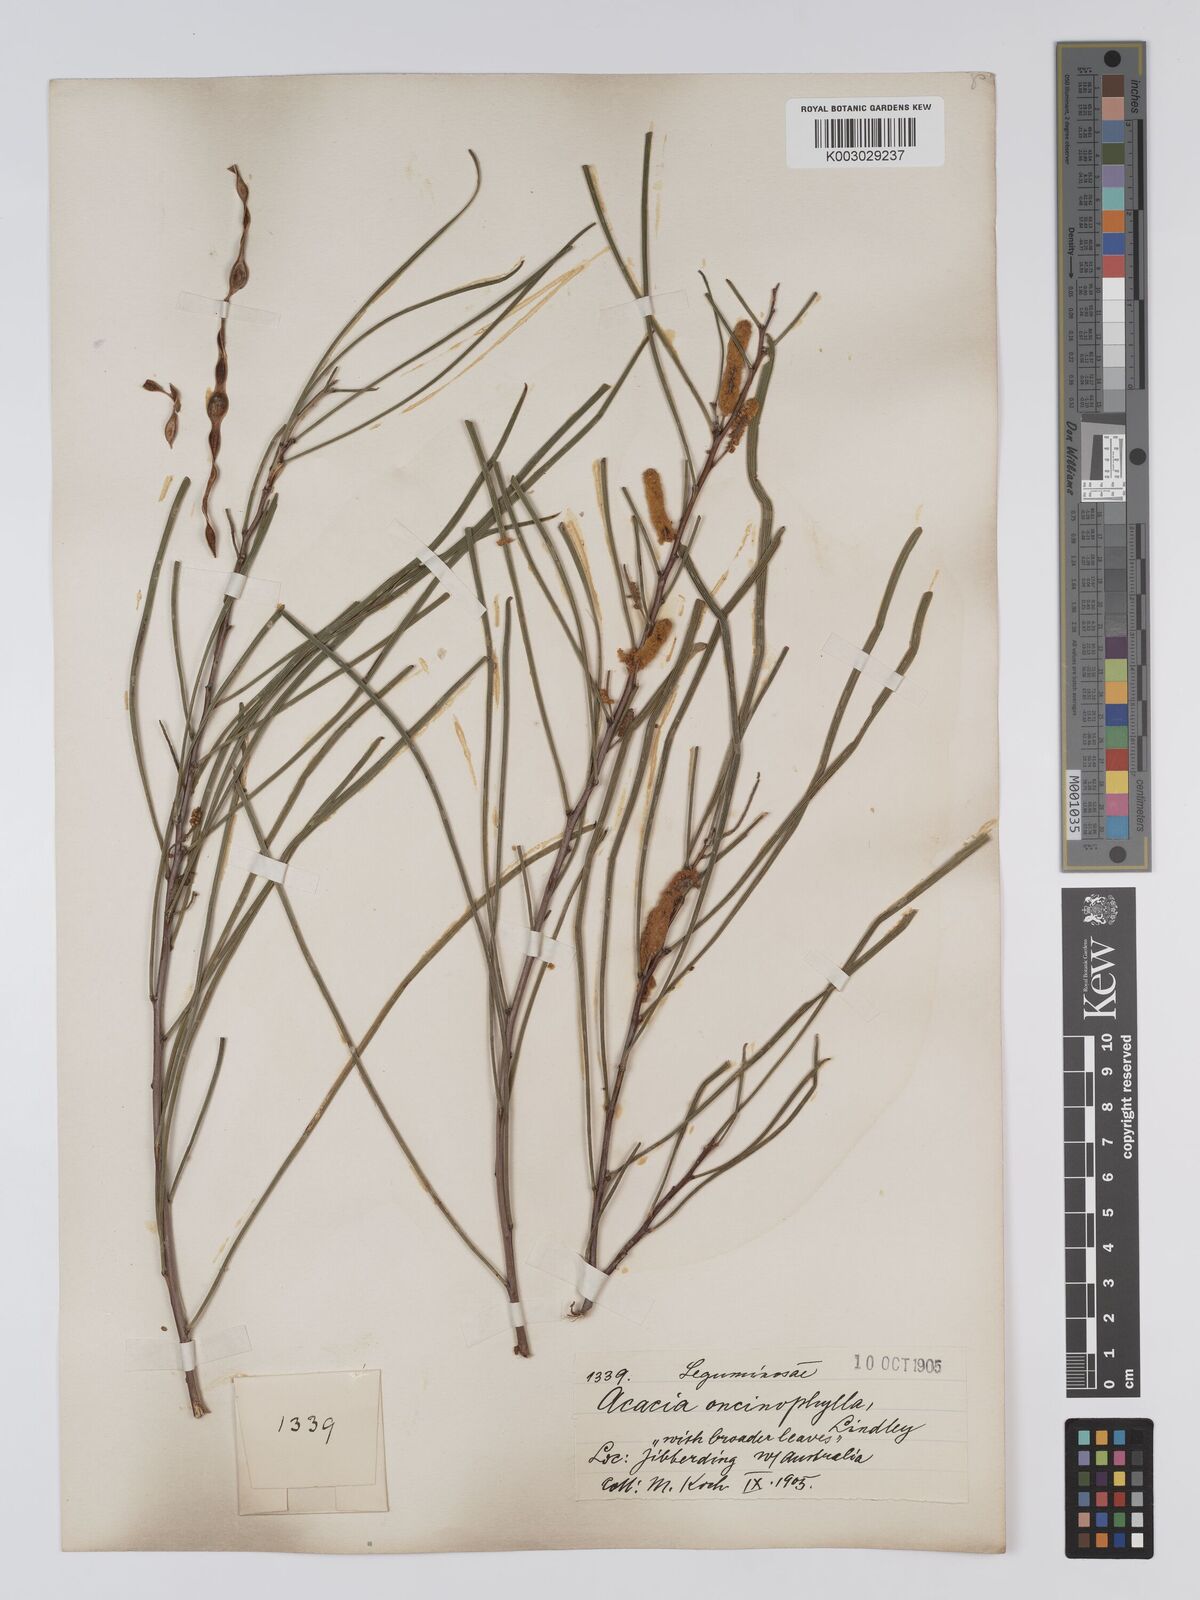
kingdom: Plantae
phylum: Tracheophyta
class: Magnoliopsida
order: Fabales
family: Fabaceae
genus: Acacia
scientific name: Acacia jibberdingensis
